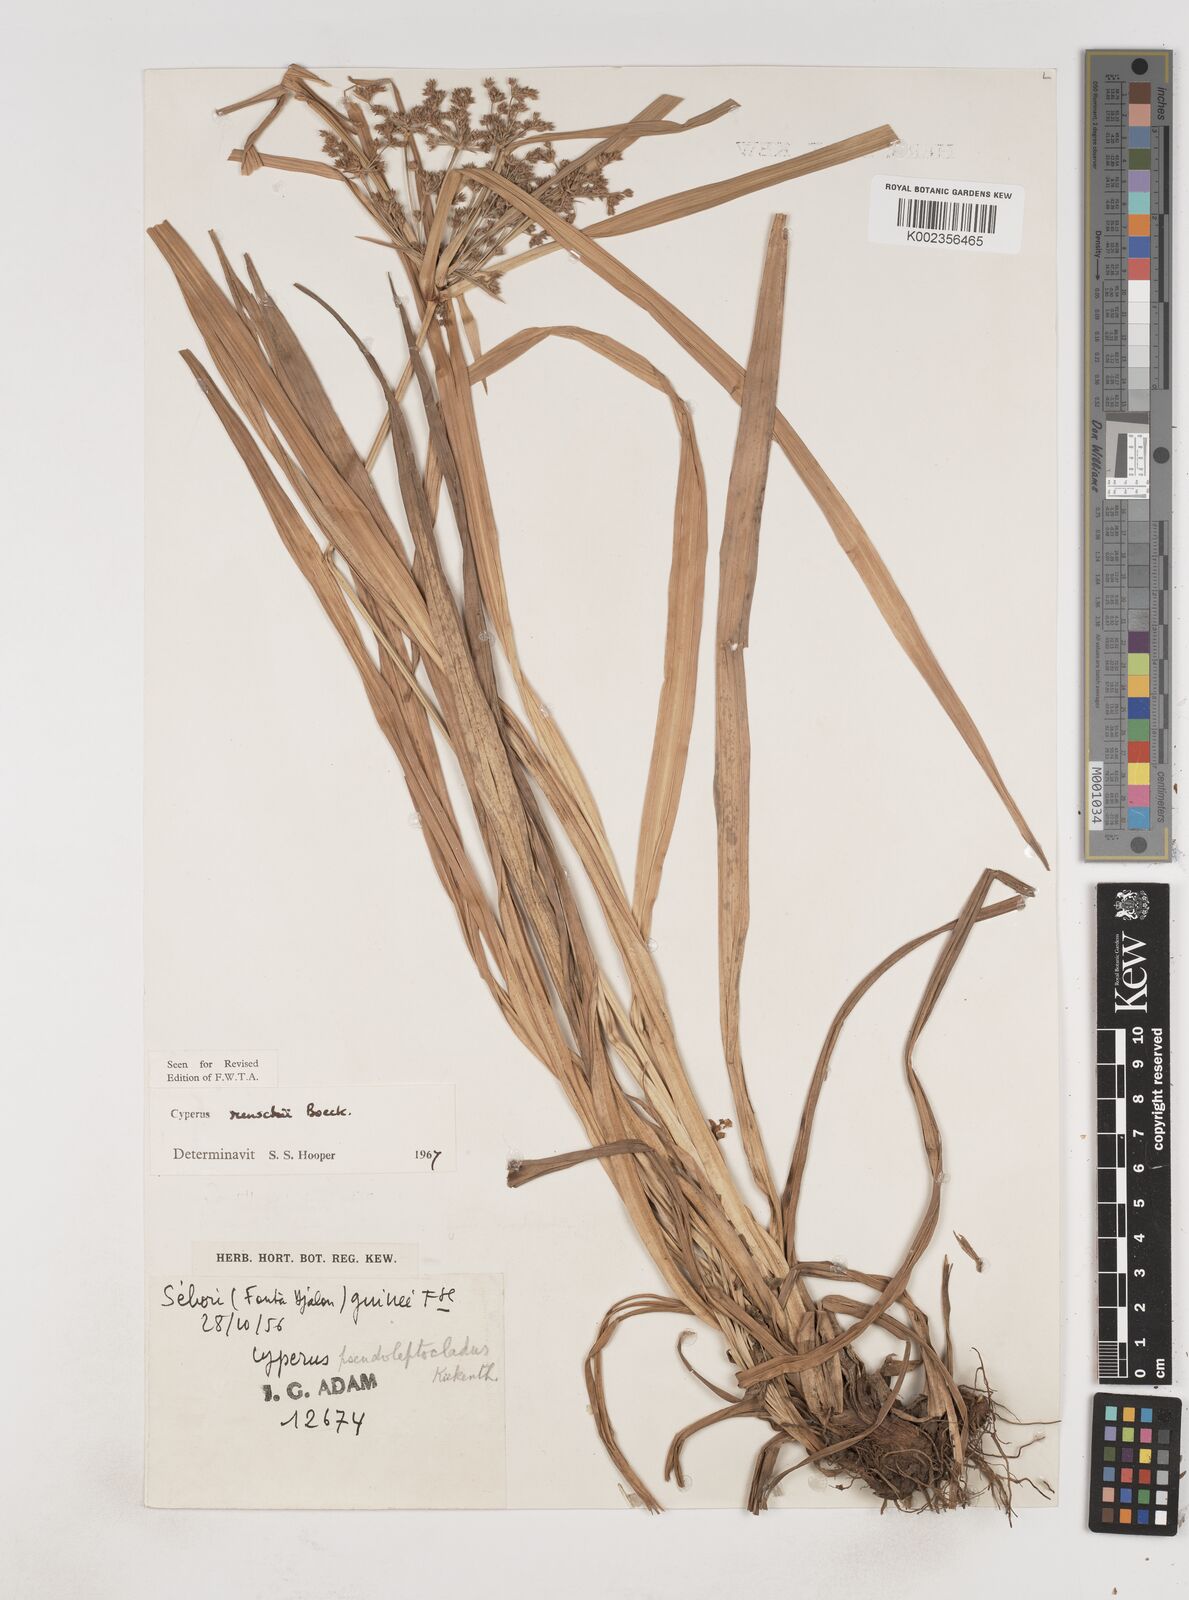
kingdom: Plantae
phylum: Tracheophyta
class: Liliopsida
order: Poales
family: Cyperaceae
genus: Cyperus
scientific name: Cyperus renschii
